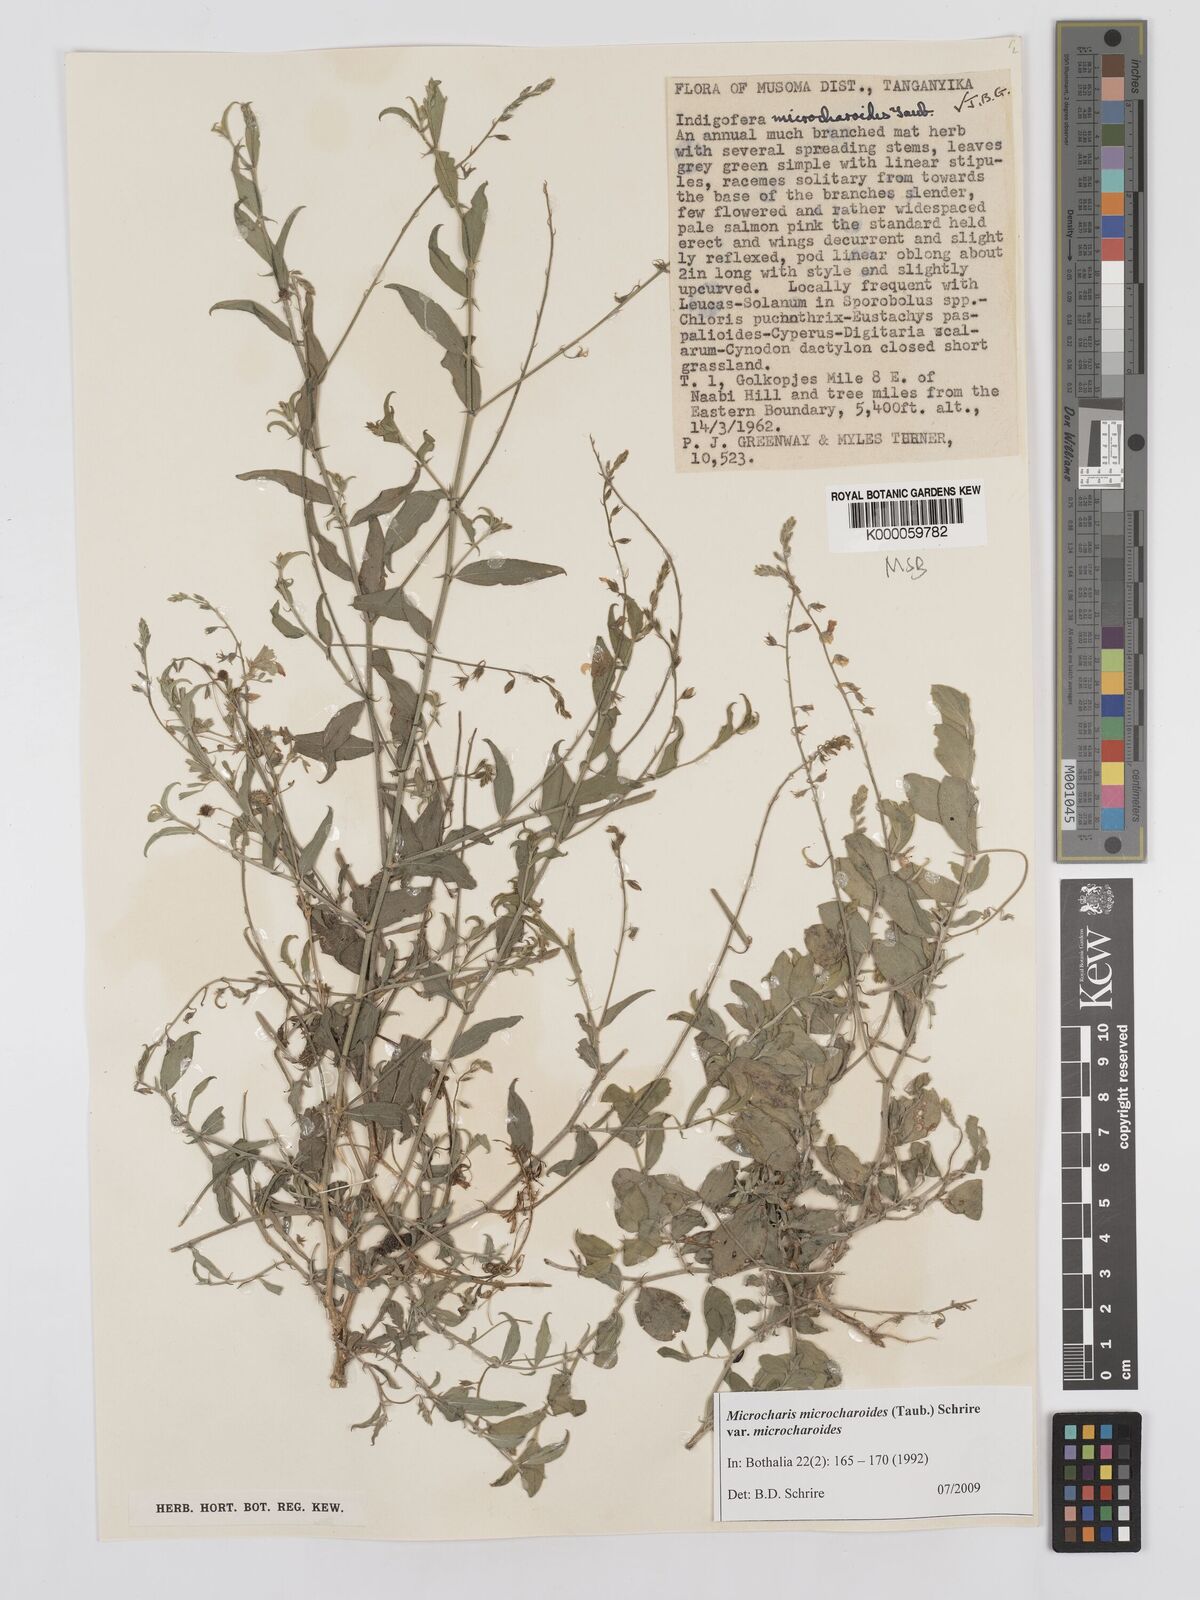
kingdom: Plantae
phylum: Tracheophyta
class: Magnoliopsida
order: Fabales
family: Fabaceae
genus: Microcharis
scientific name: Microcharis microcharoides
